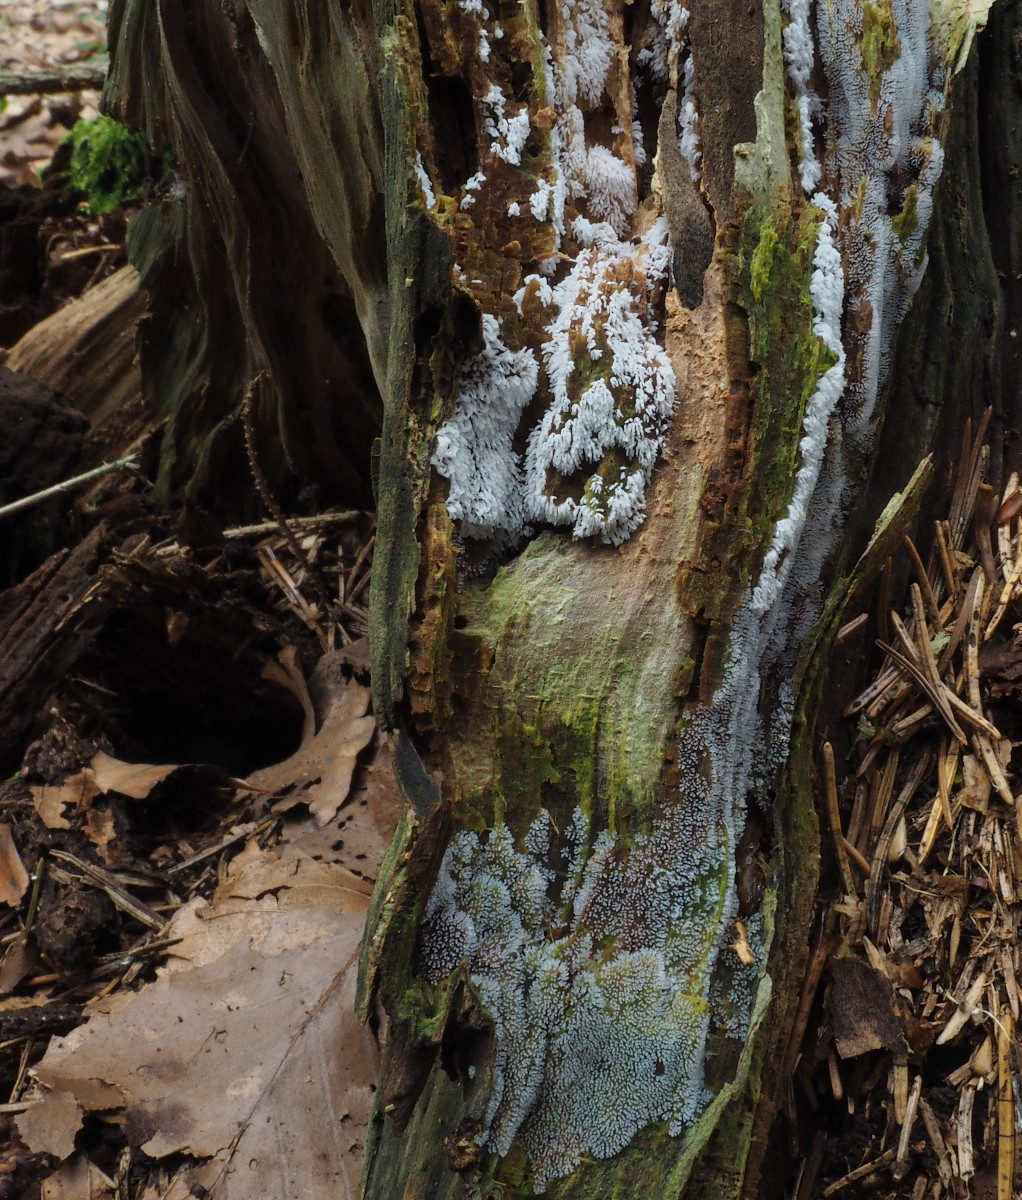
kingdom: Protozoa
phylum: Mycetozoa
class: Protosteliomycetes
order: Ceratiomyxales
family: Ceratiomyxaceae
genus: Ceratiomyxa
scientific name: Ceratiomyxa fruticulosa
